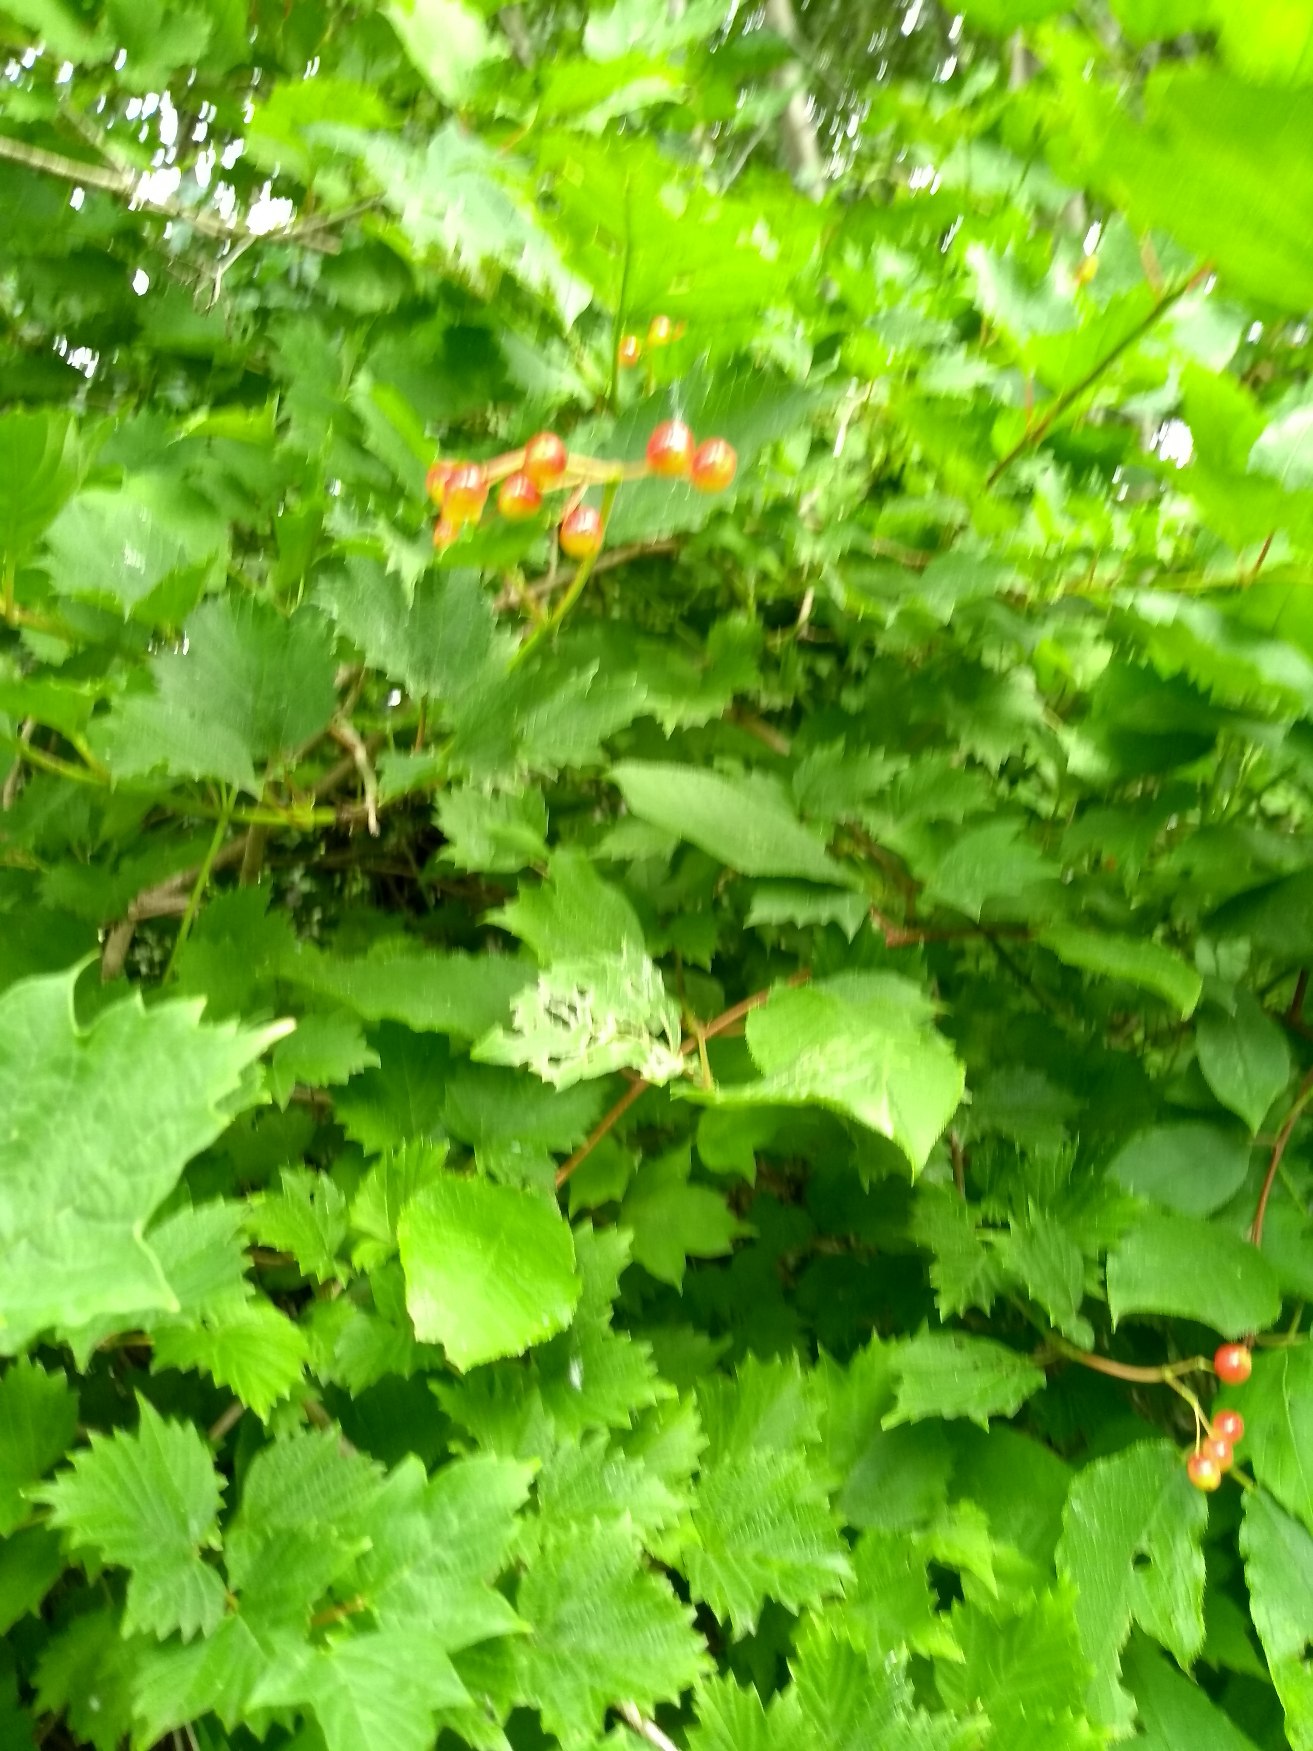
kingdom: Plantae
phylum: Tracheophyta
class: Magnoliopsida
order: Dipsacales
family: Viburnaceae
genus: Viburnum
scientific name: Viburnum opulus
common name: Kvalkved
